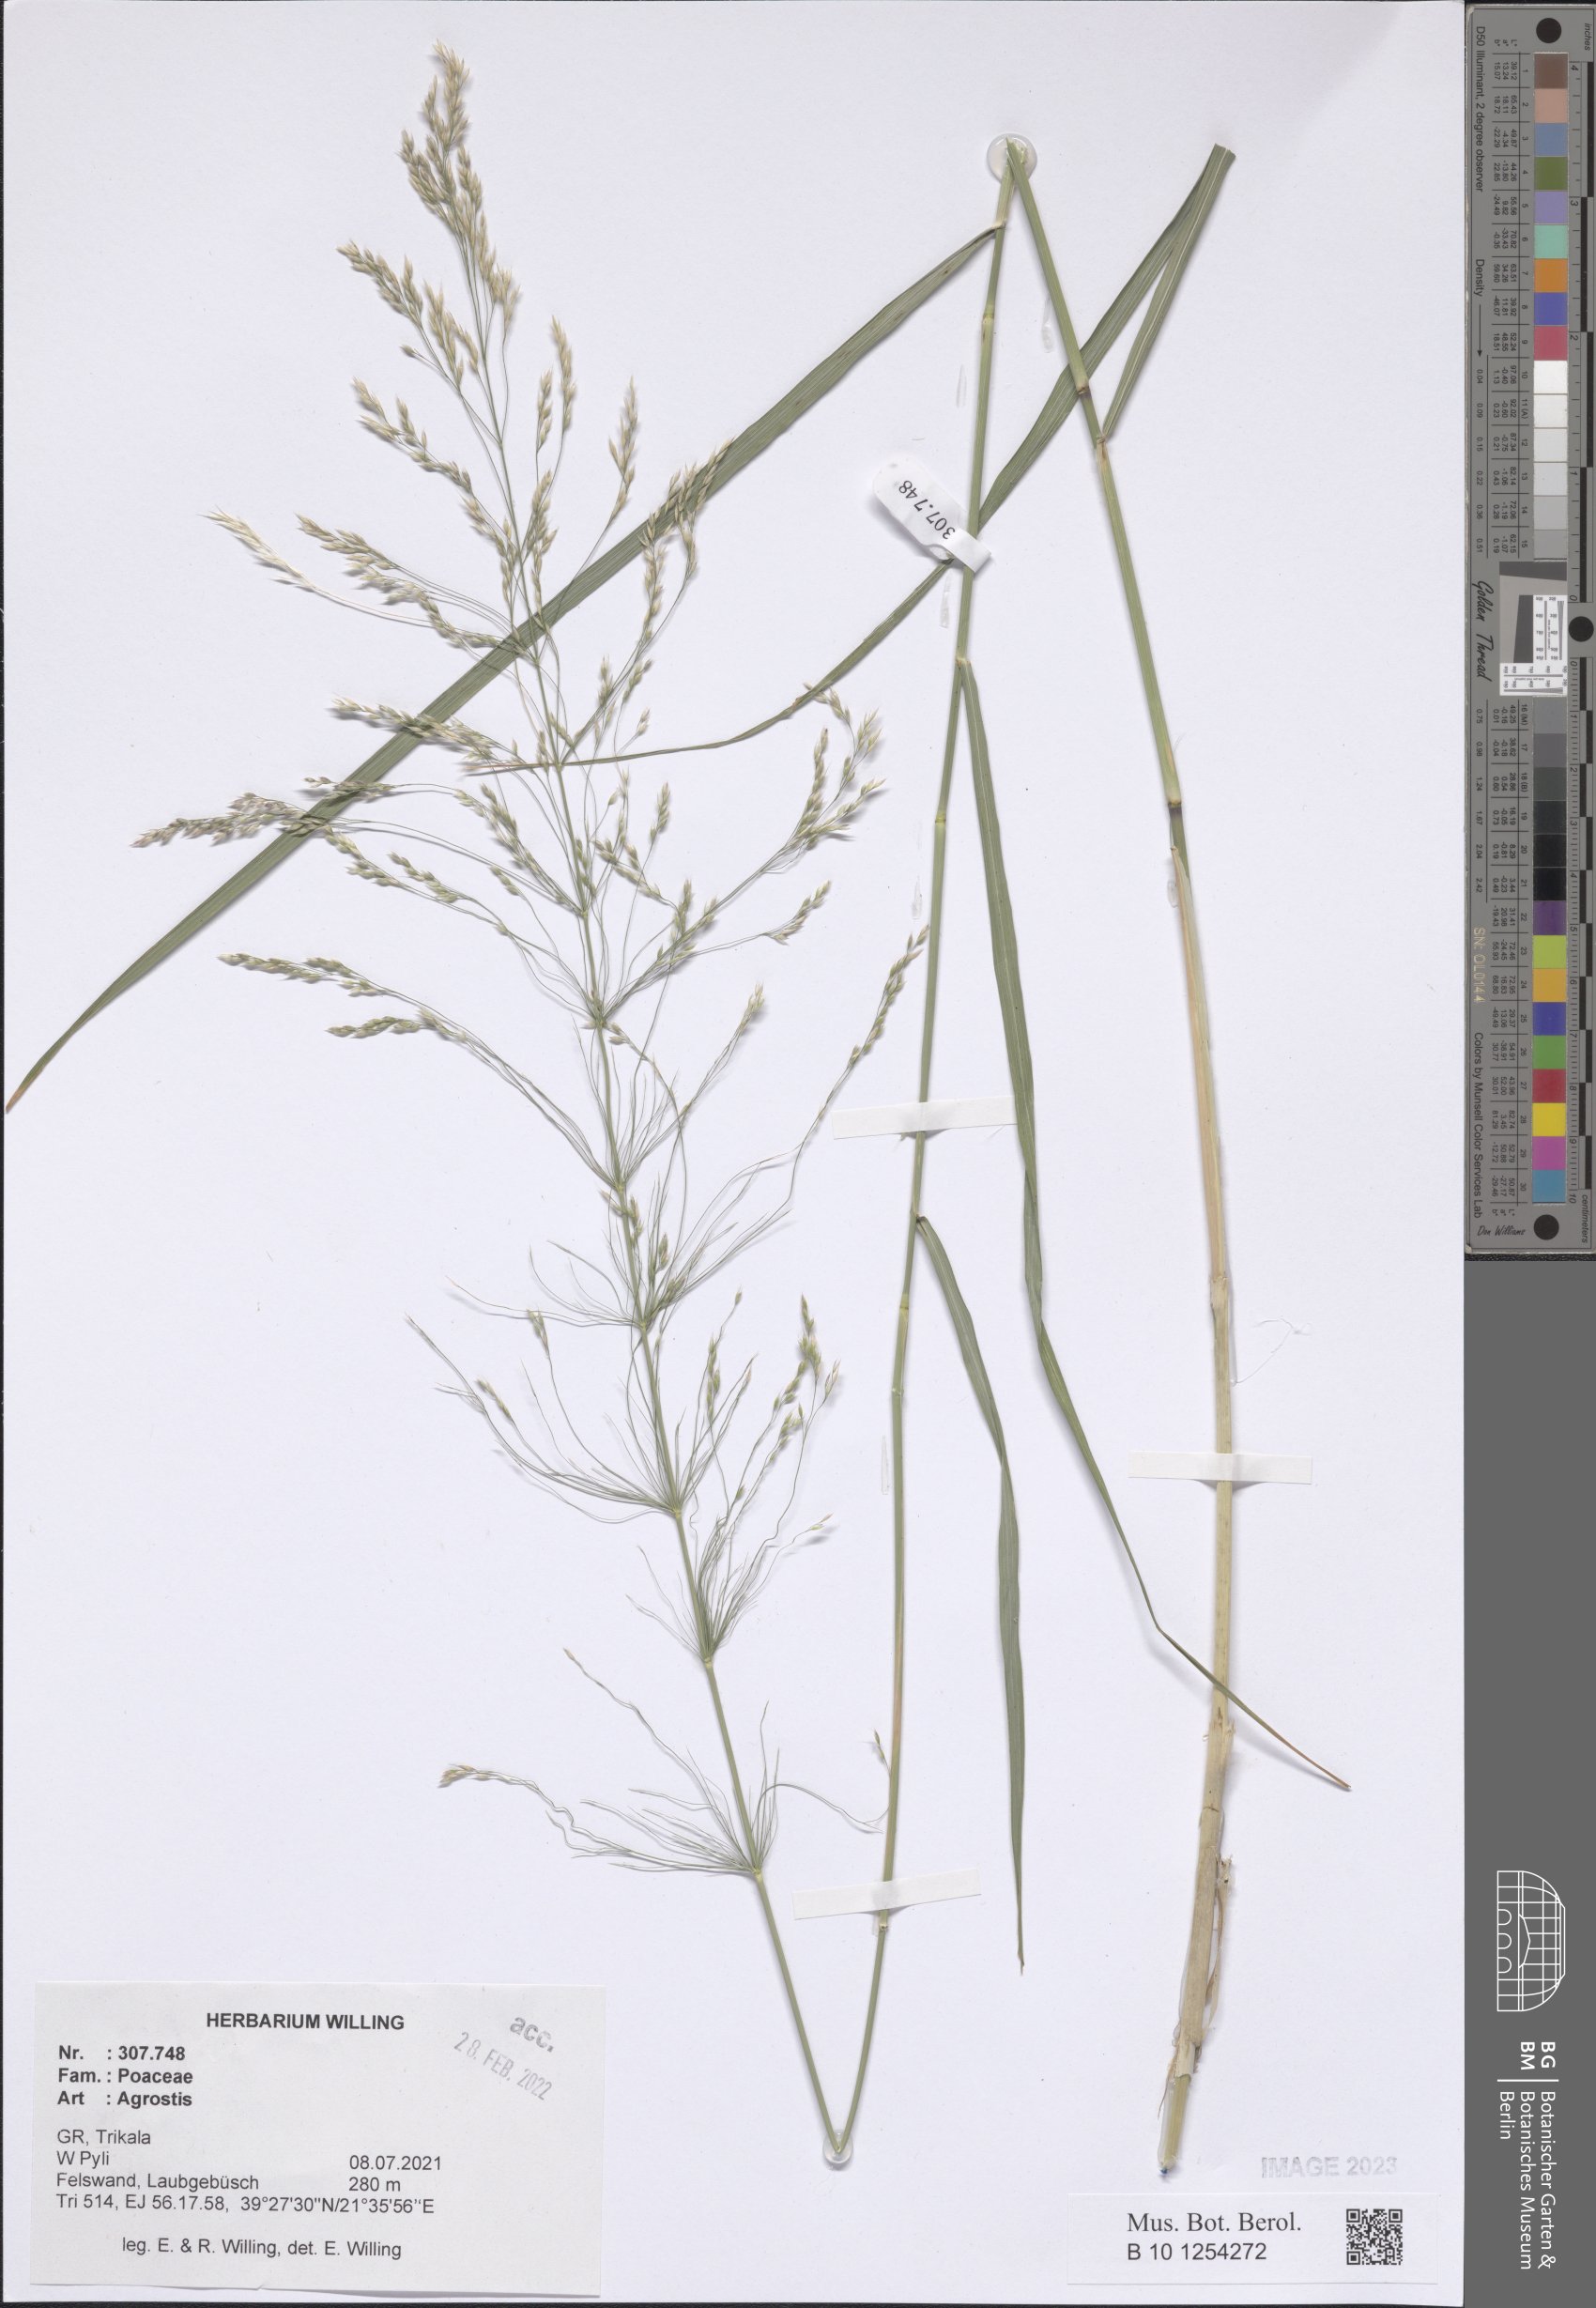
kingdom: Plantae
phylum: Tracheophyta
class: Liliopsida
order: Poales
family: Poaceae
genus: Agrostis
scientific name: Agrostis
